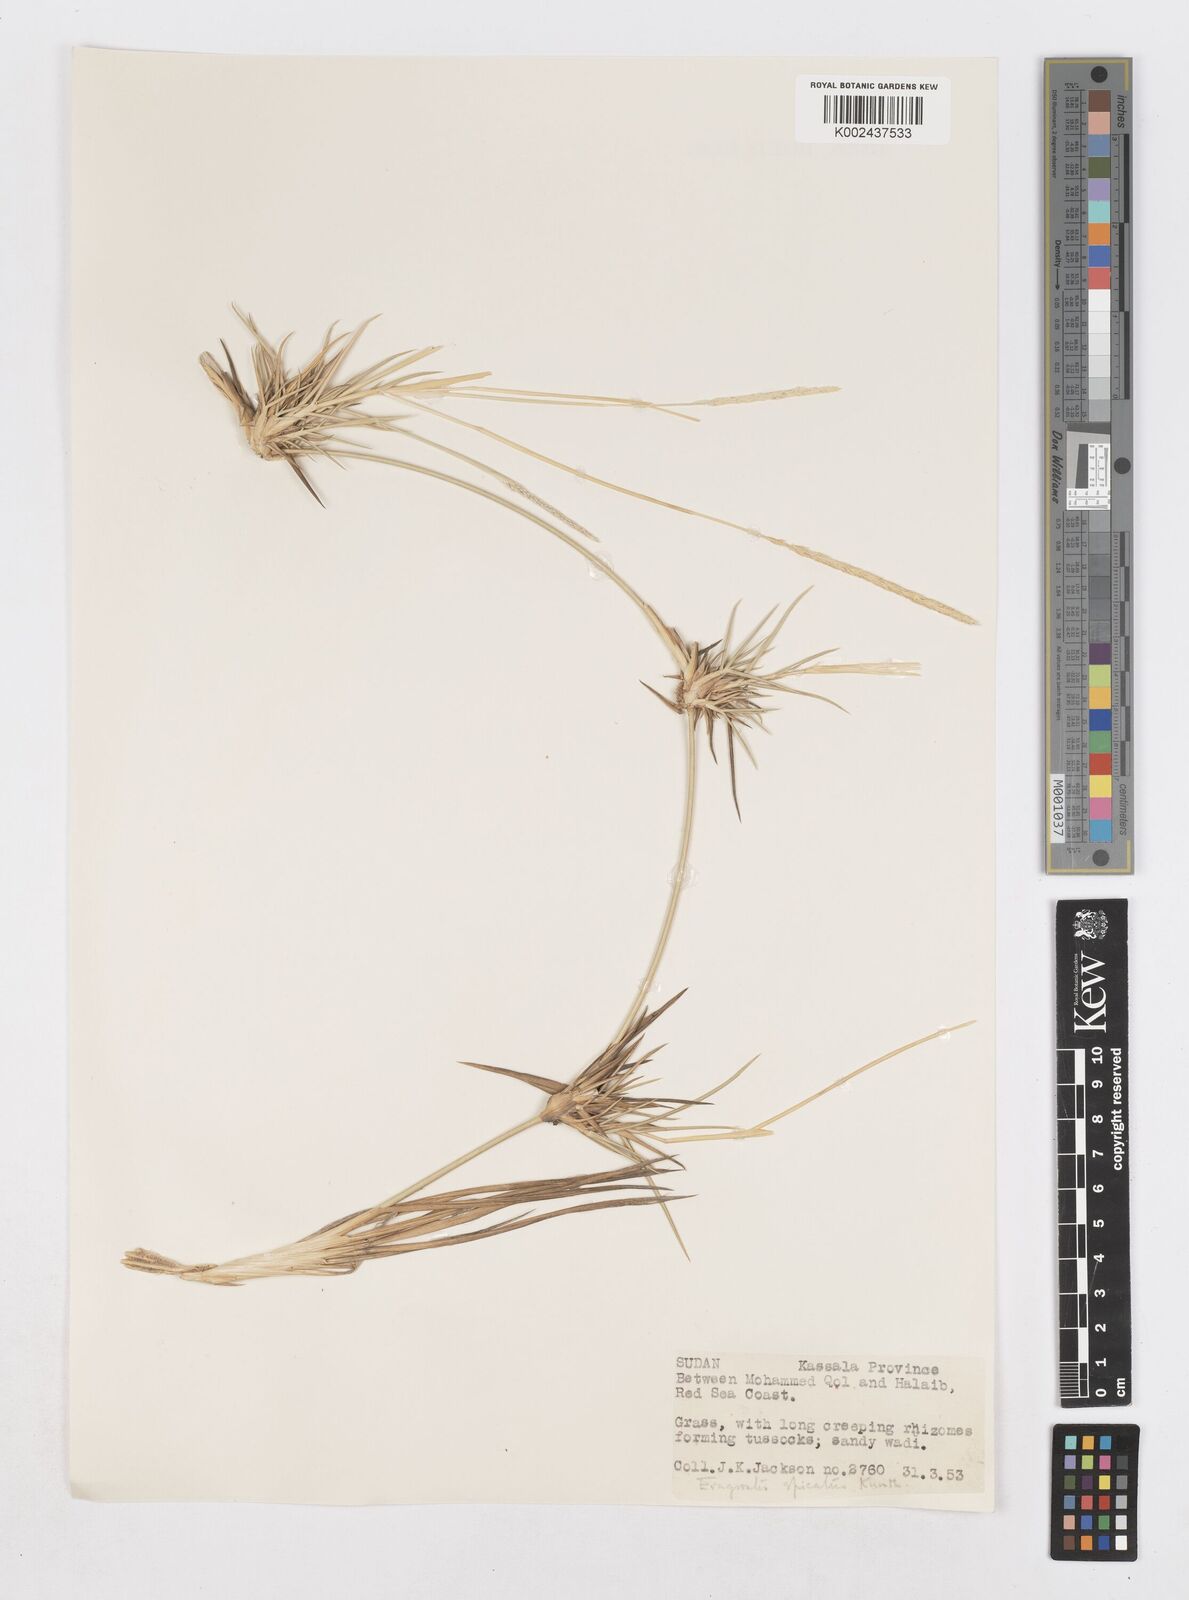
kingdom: Plantae
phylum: Tracheophyta
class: Liliopsida
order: Poales
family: Poaceae
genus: Sporobolus
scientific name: Sporobolus spicatus
